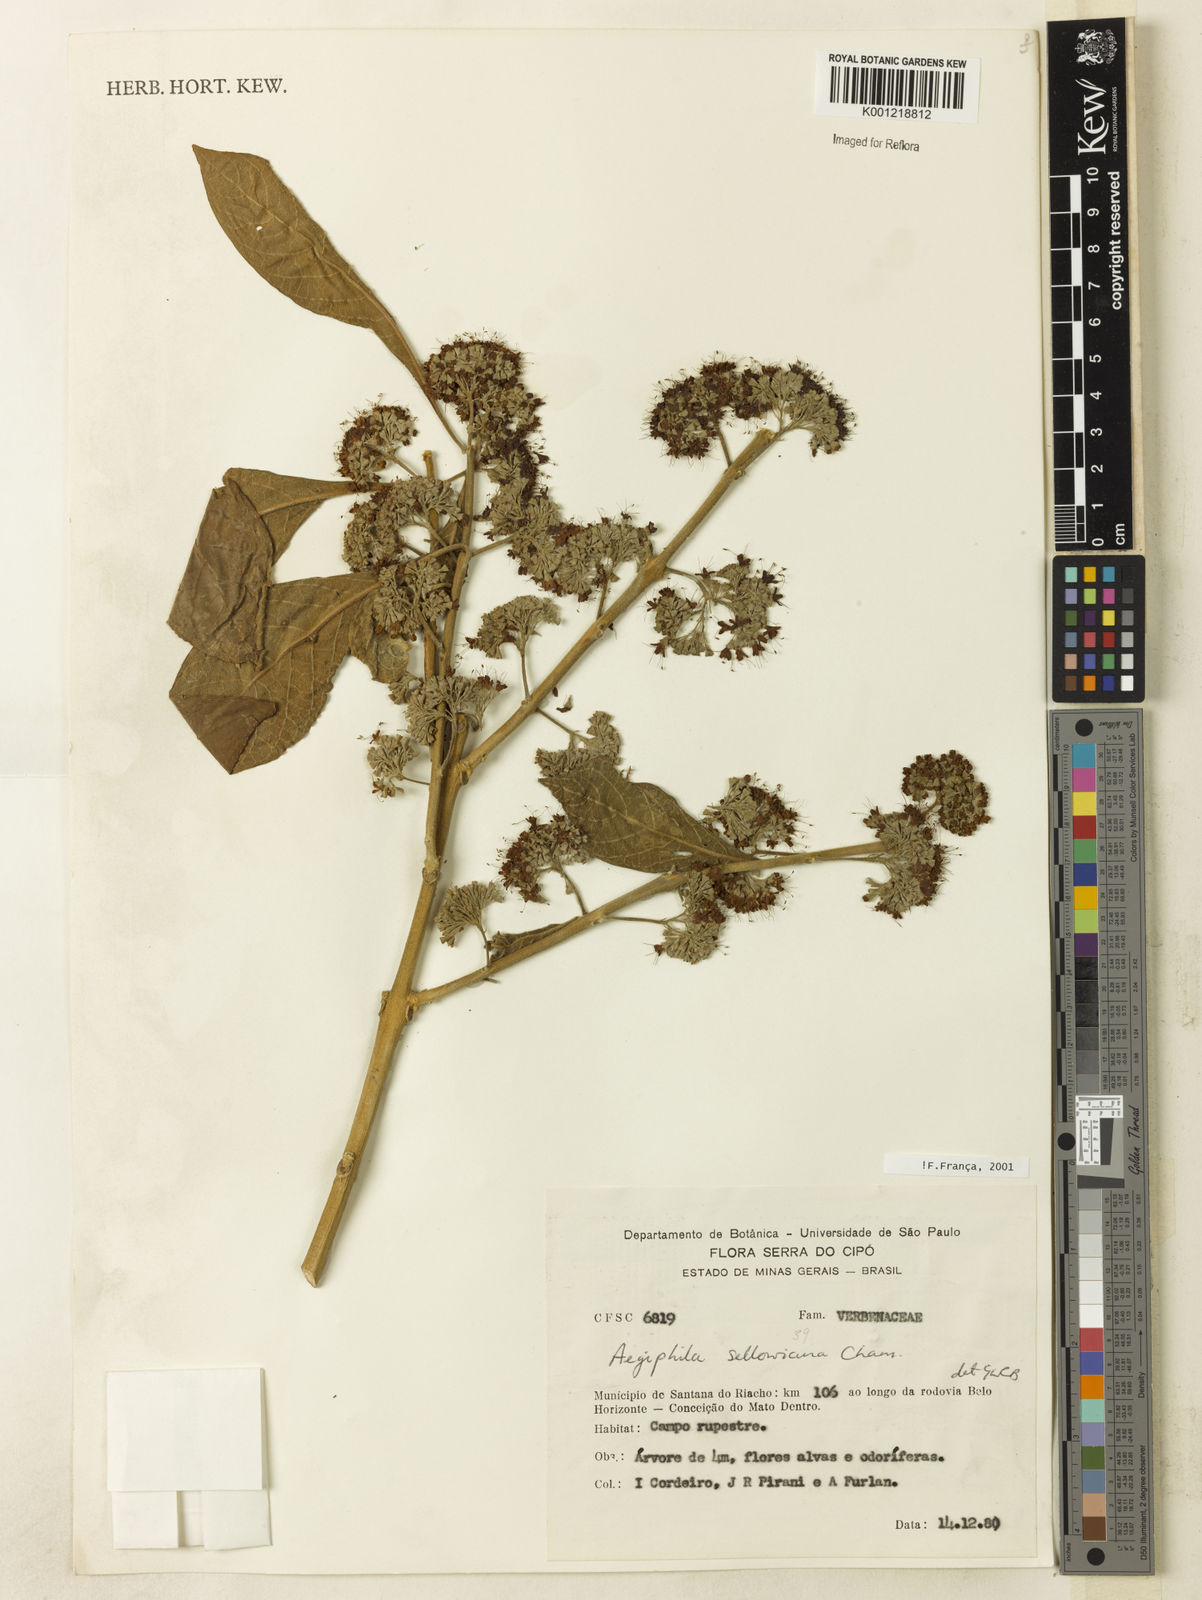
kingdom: Plantae
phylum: Tracheophyta
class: Magnoliopsida
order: Lamiales
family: Lamiaceae
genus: Aegiphila
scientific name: Aegiphila verticillata
